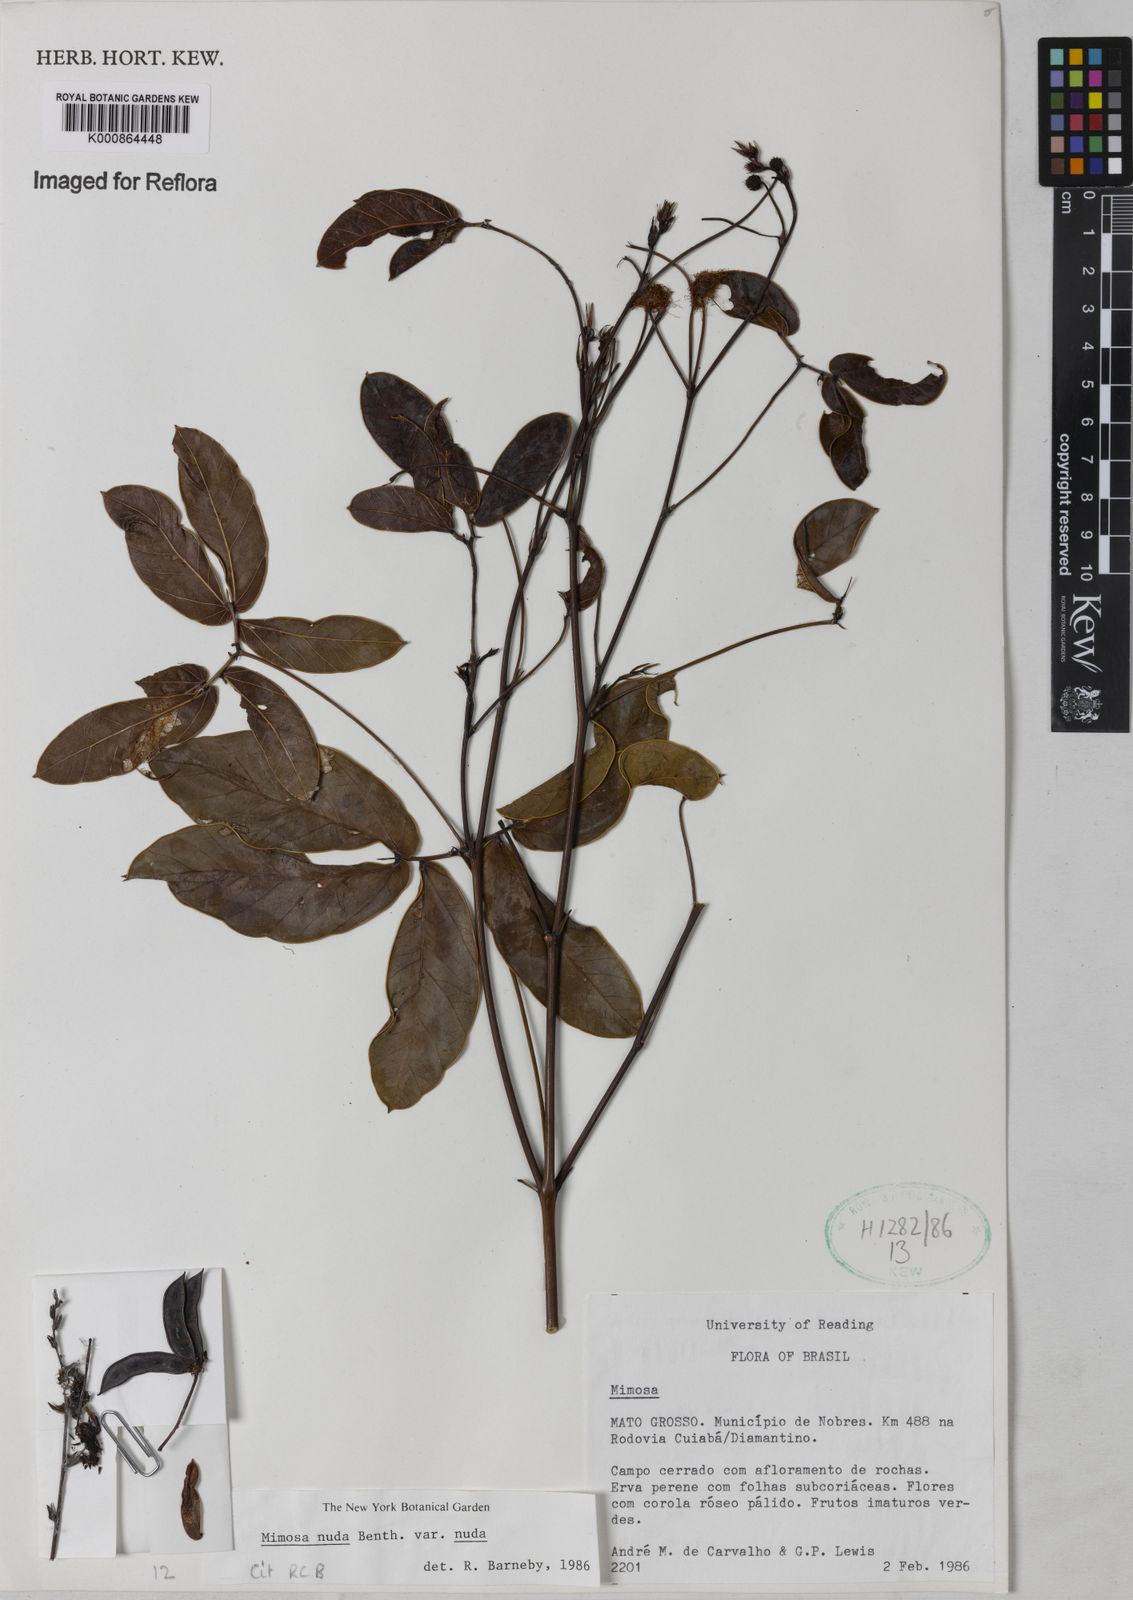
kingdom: Plantae
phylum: Tracheophyta
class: Magnoliopsida
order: Fabales
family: Fabaceae
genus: Mimosa
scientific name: Mimosa debilis
